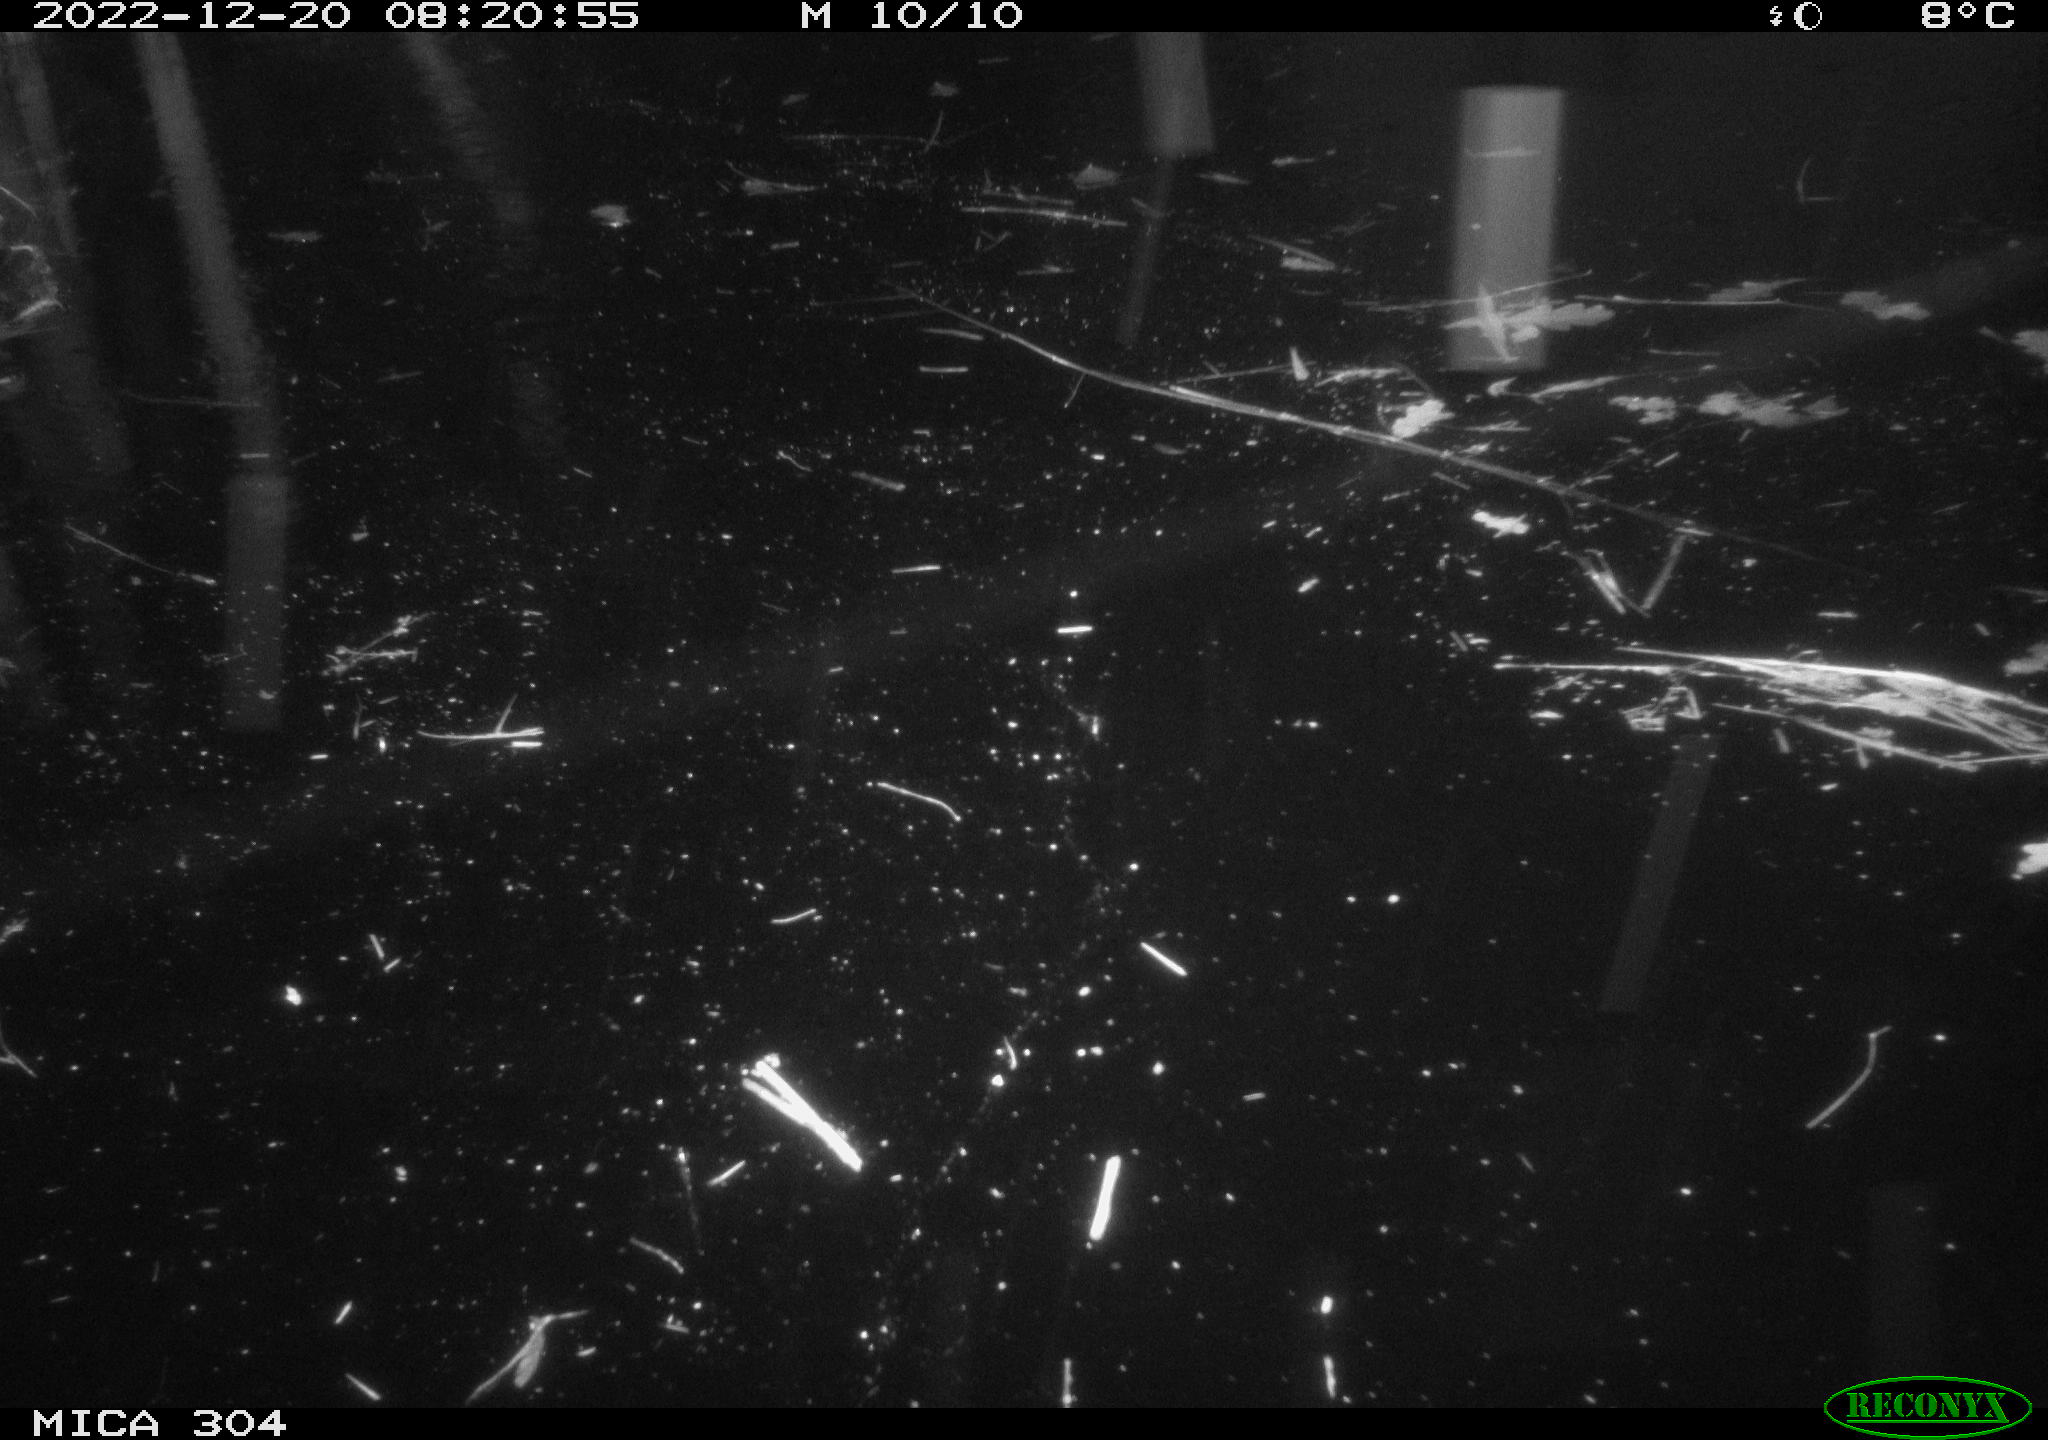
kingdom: Animalia
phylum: Chordata
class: Aves
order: Gruiformes
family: Rallidae
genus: Fulica
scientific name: Fulica atra
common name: Eurasian coot
